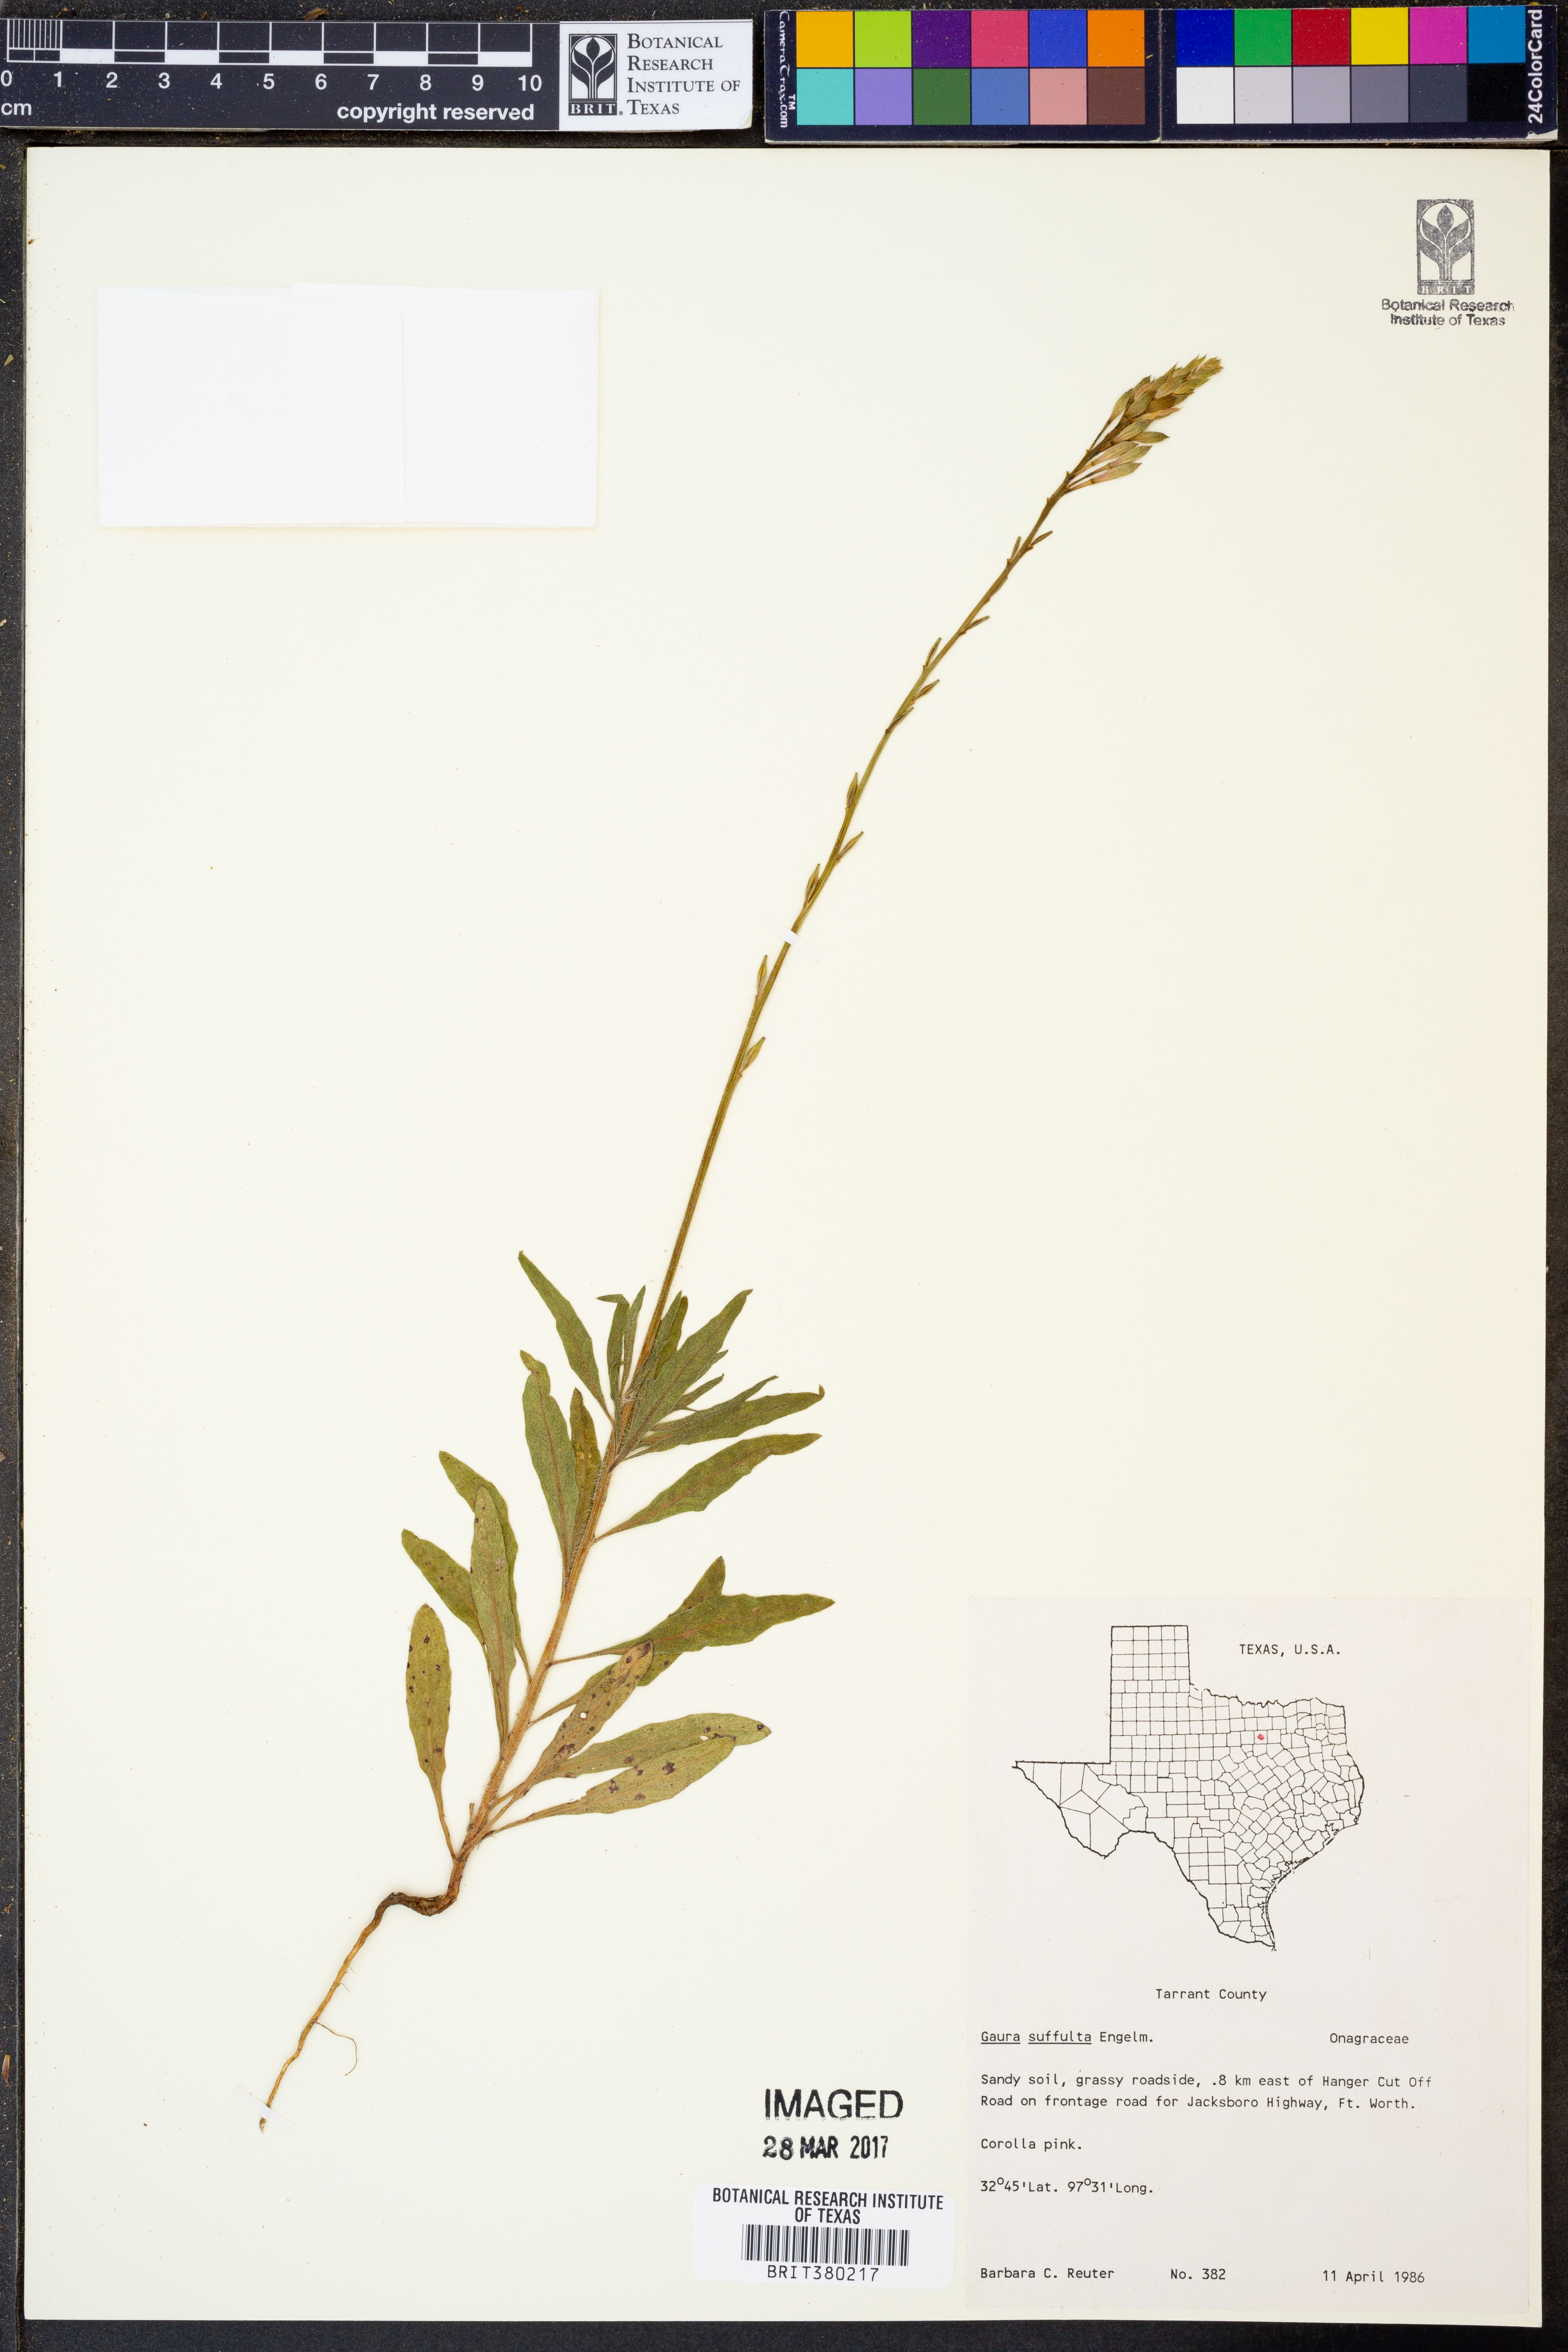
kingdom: Plantae
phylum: Tracheophyta
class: Magnoliopsida
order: Myrtales
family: Onagraceae
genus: Oenothera
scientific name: Oenothera Gaura suffulta
